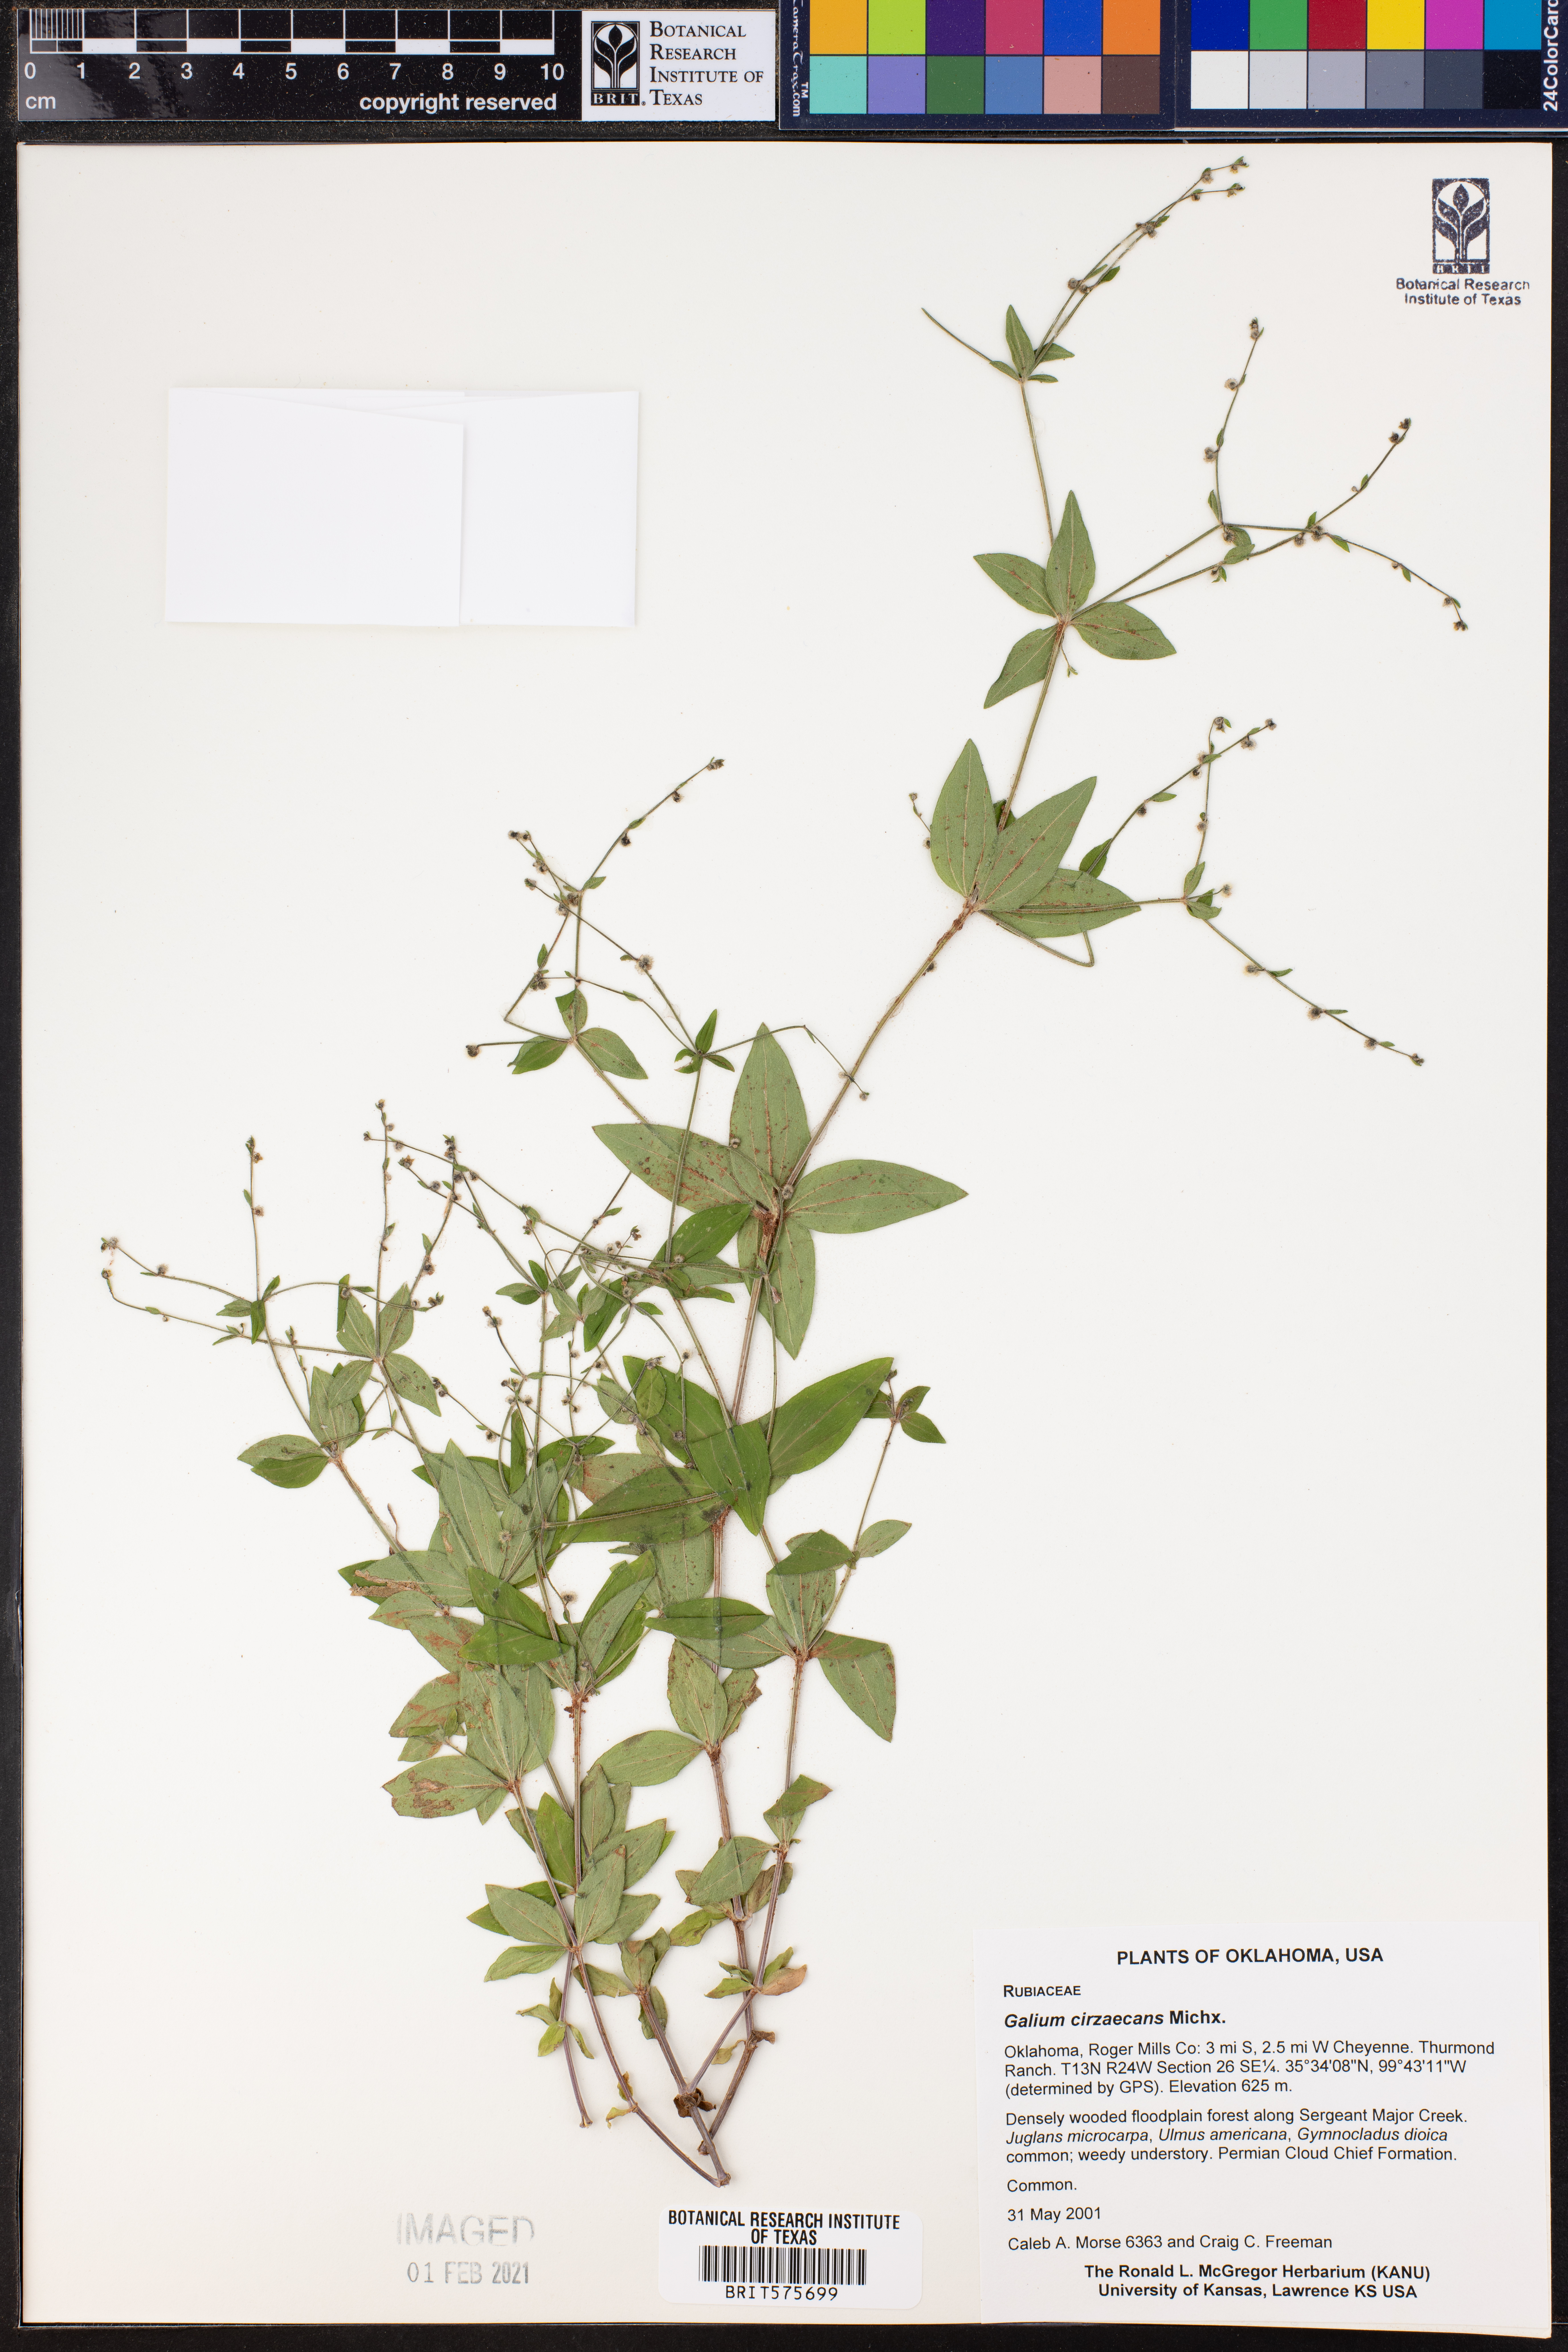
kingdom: Plantae
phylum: Tracheophyta
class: Magnoliopsida
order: Gentianales
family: Rubiaceae
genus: Galium
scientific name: Galium circaezans
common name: Forest bedstraw
